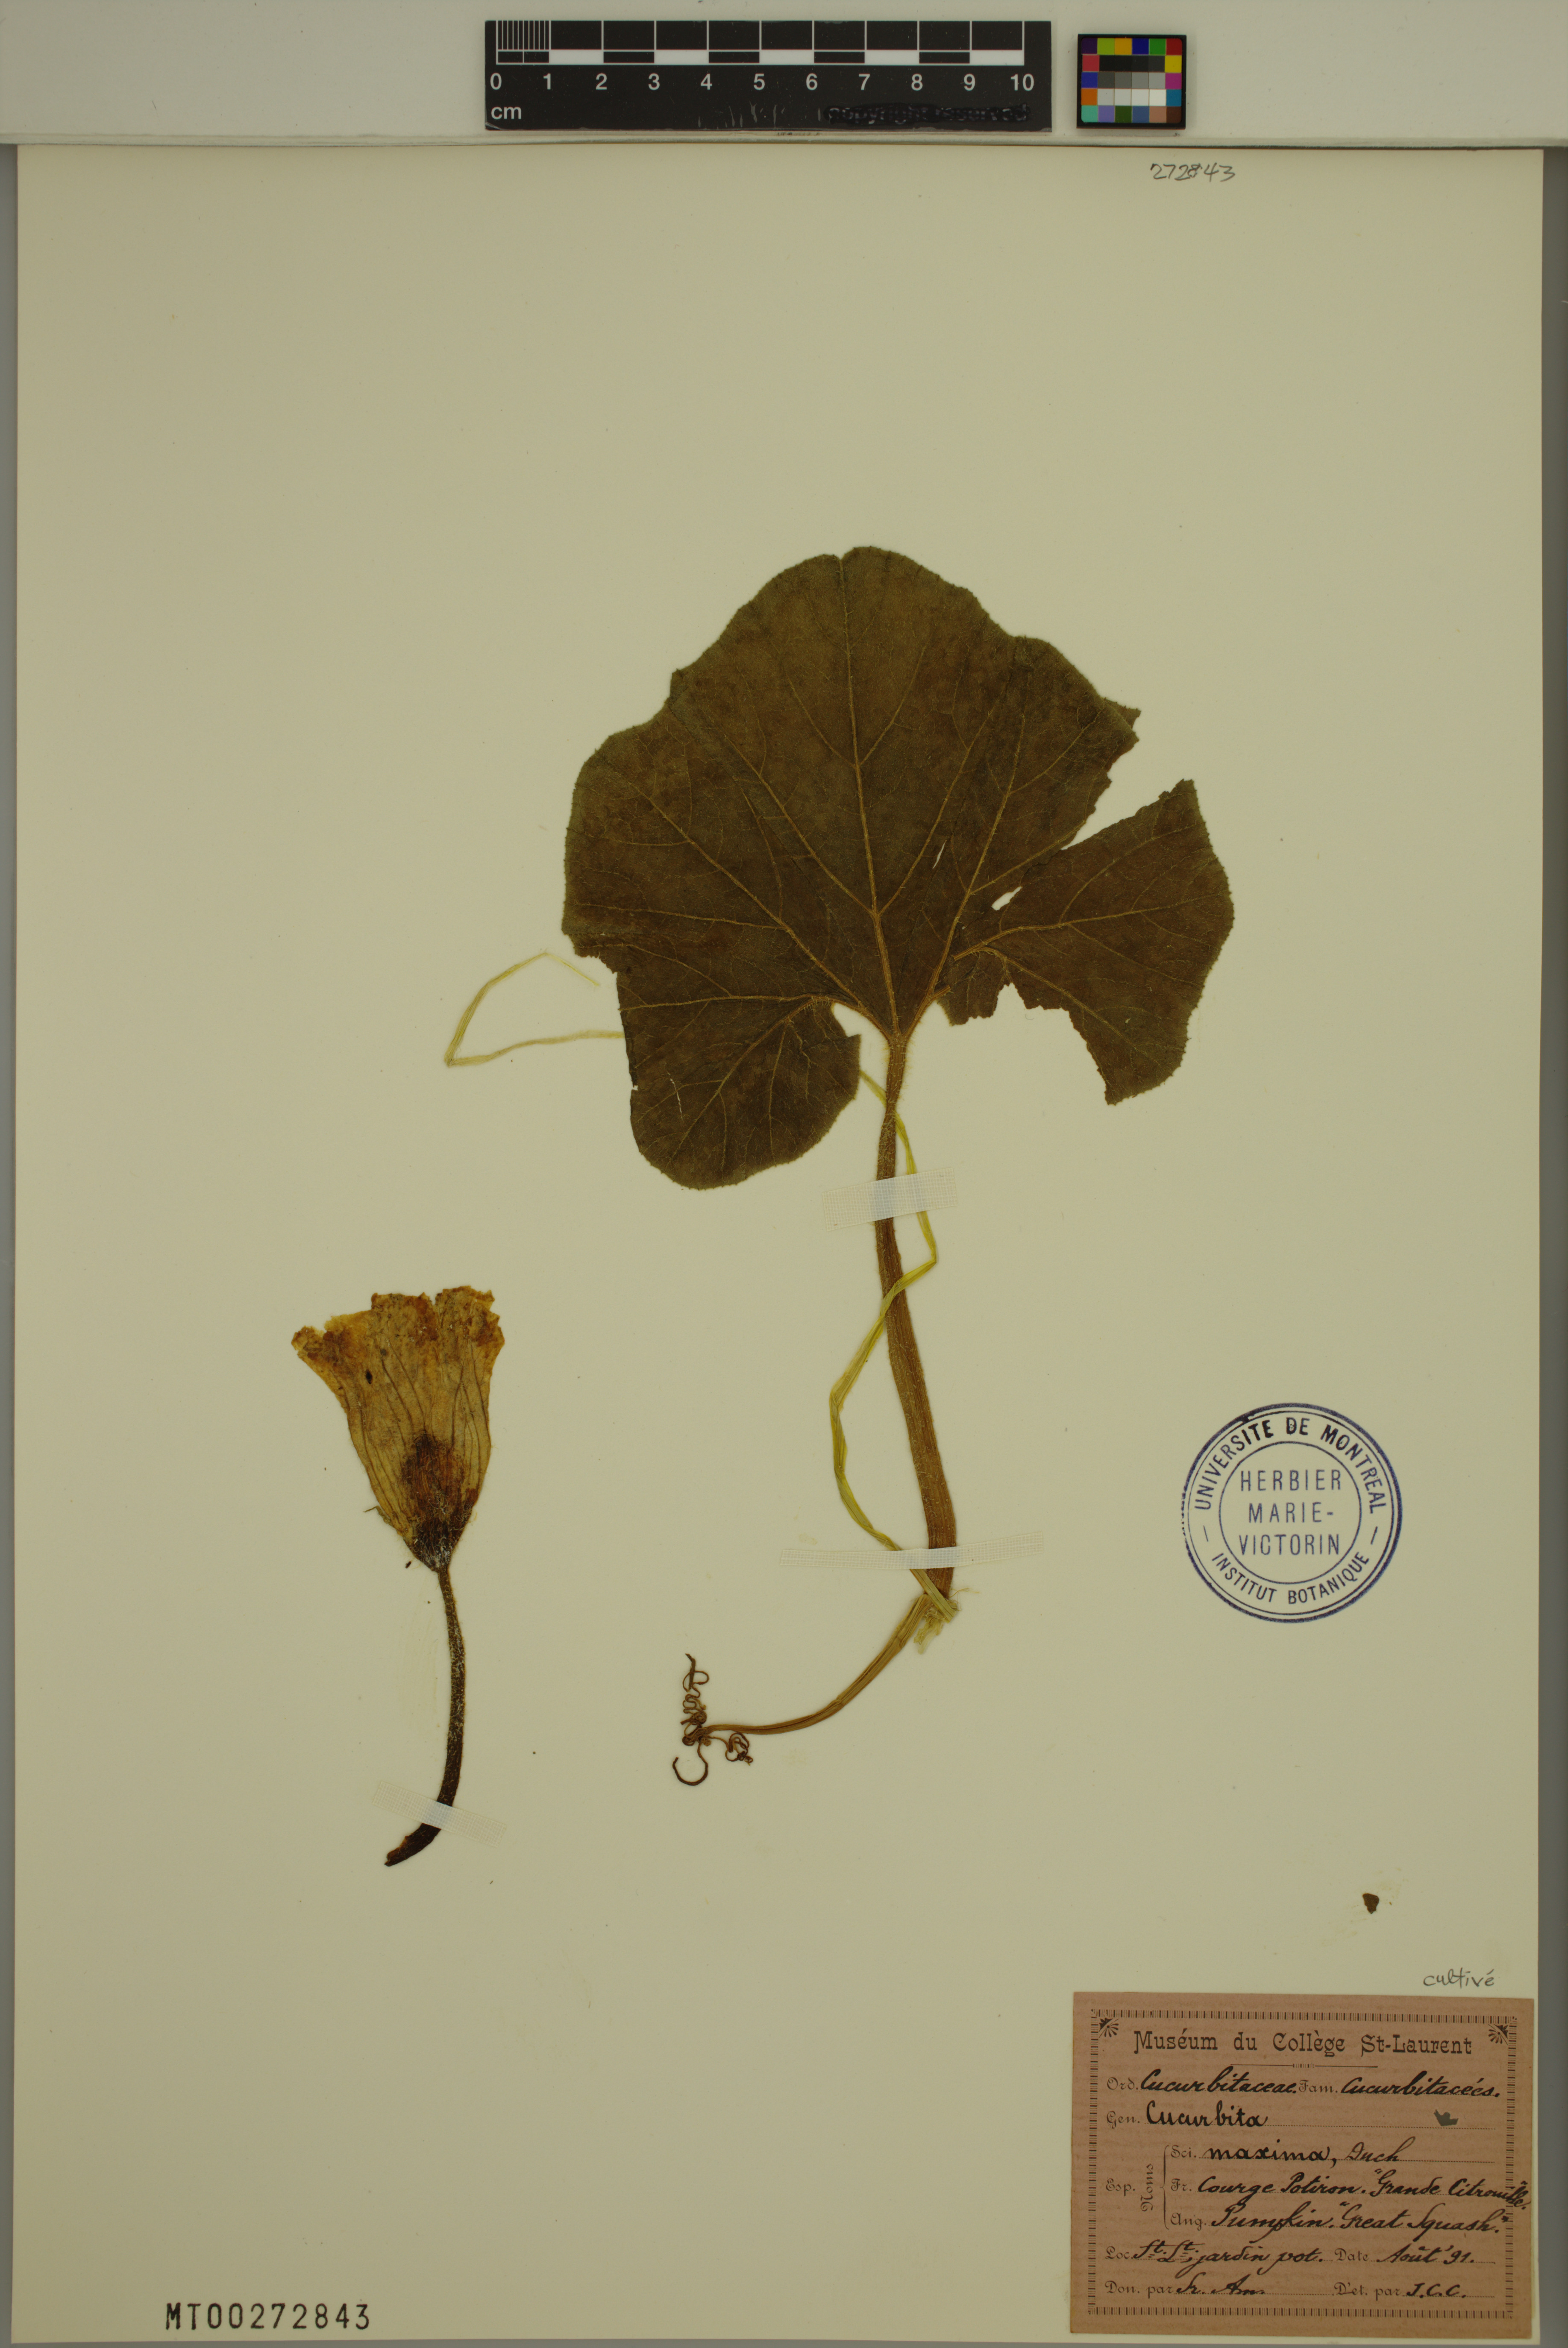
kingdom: Plantae
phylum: Tracheophyta
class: Magnoliopsida
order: Cucurbitales
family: Cucurbitaceae
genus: Cucurbita
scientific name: Cucurbita maxima
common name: Pumpkin
